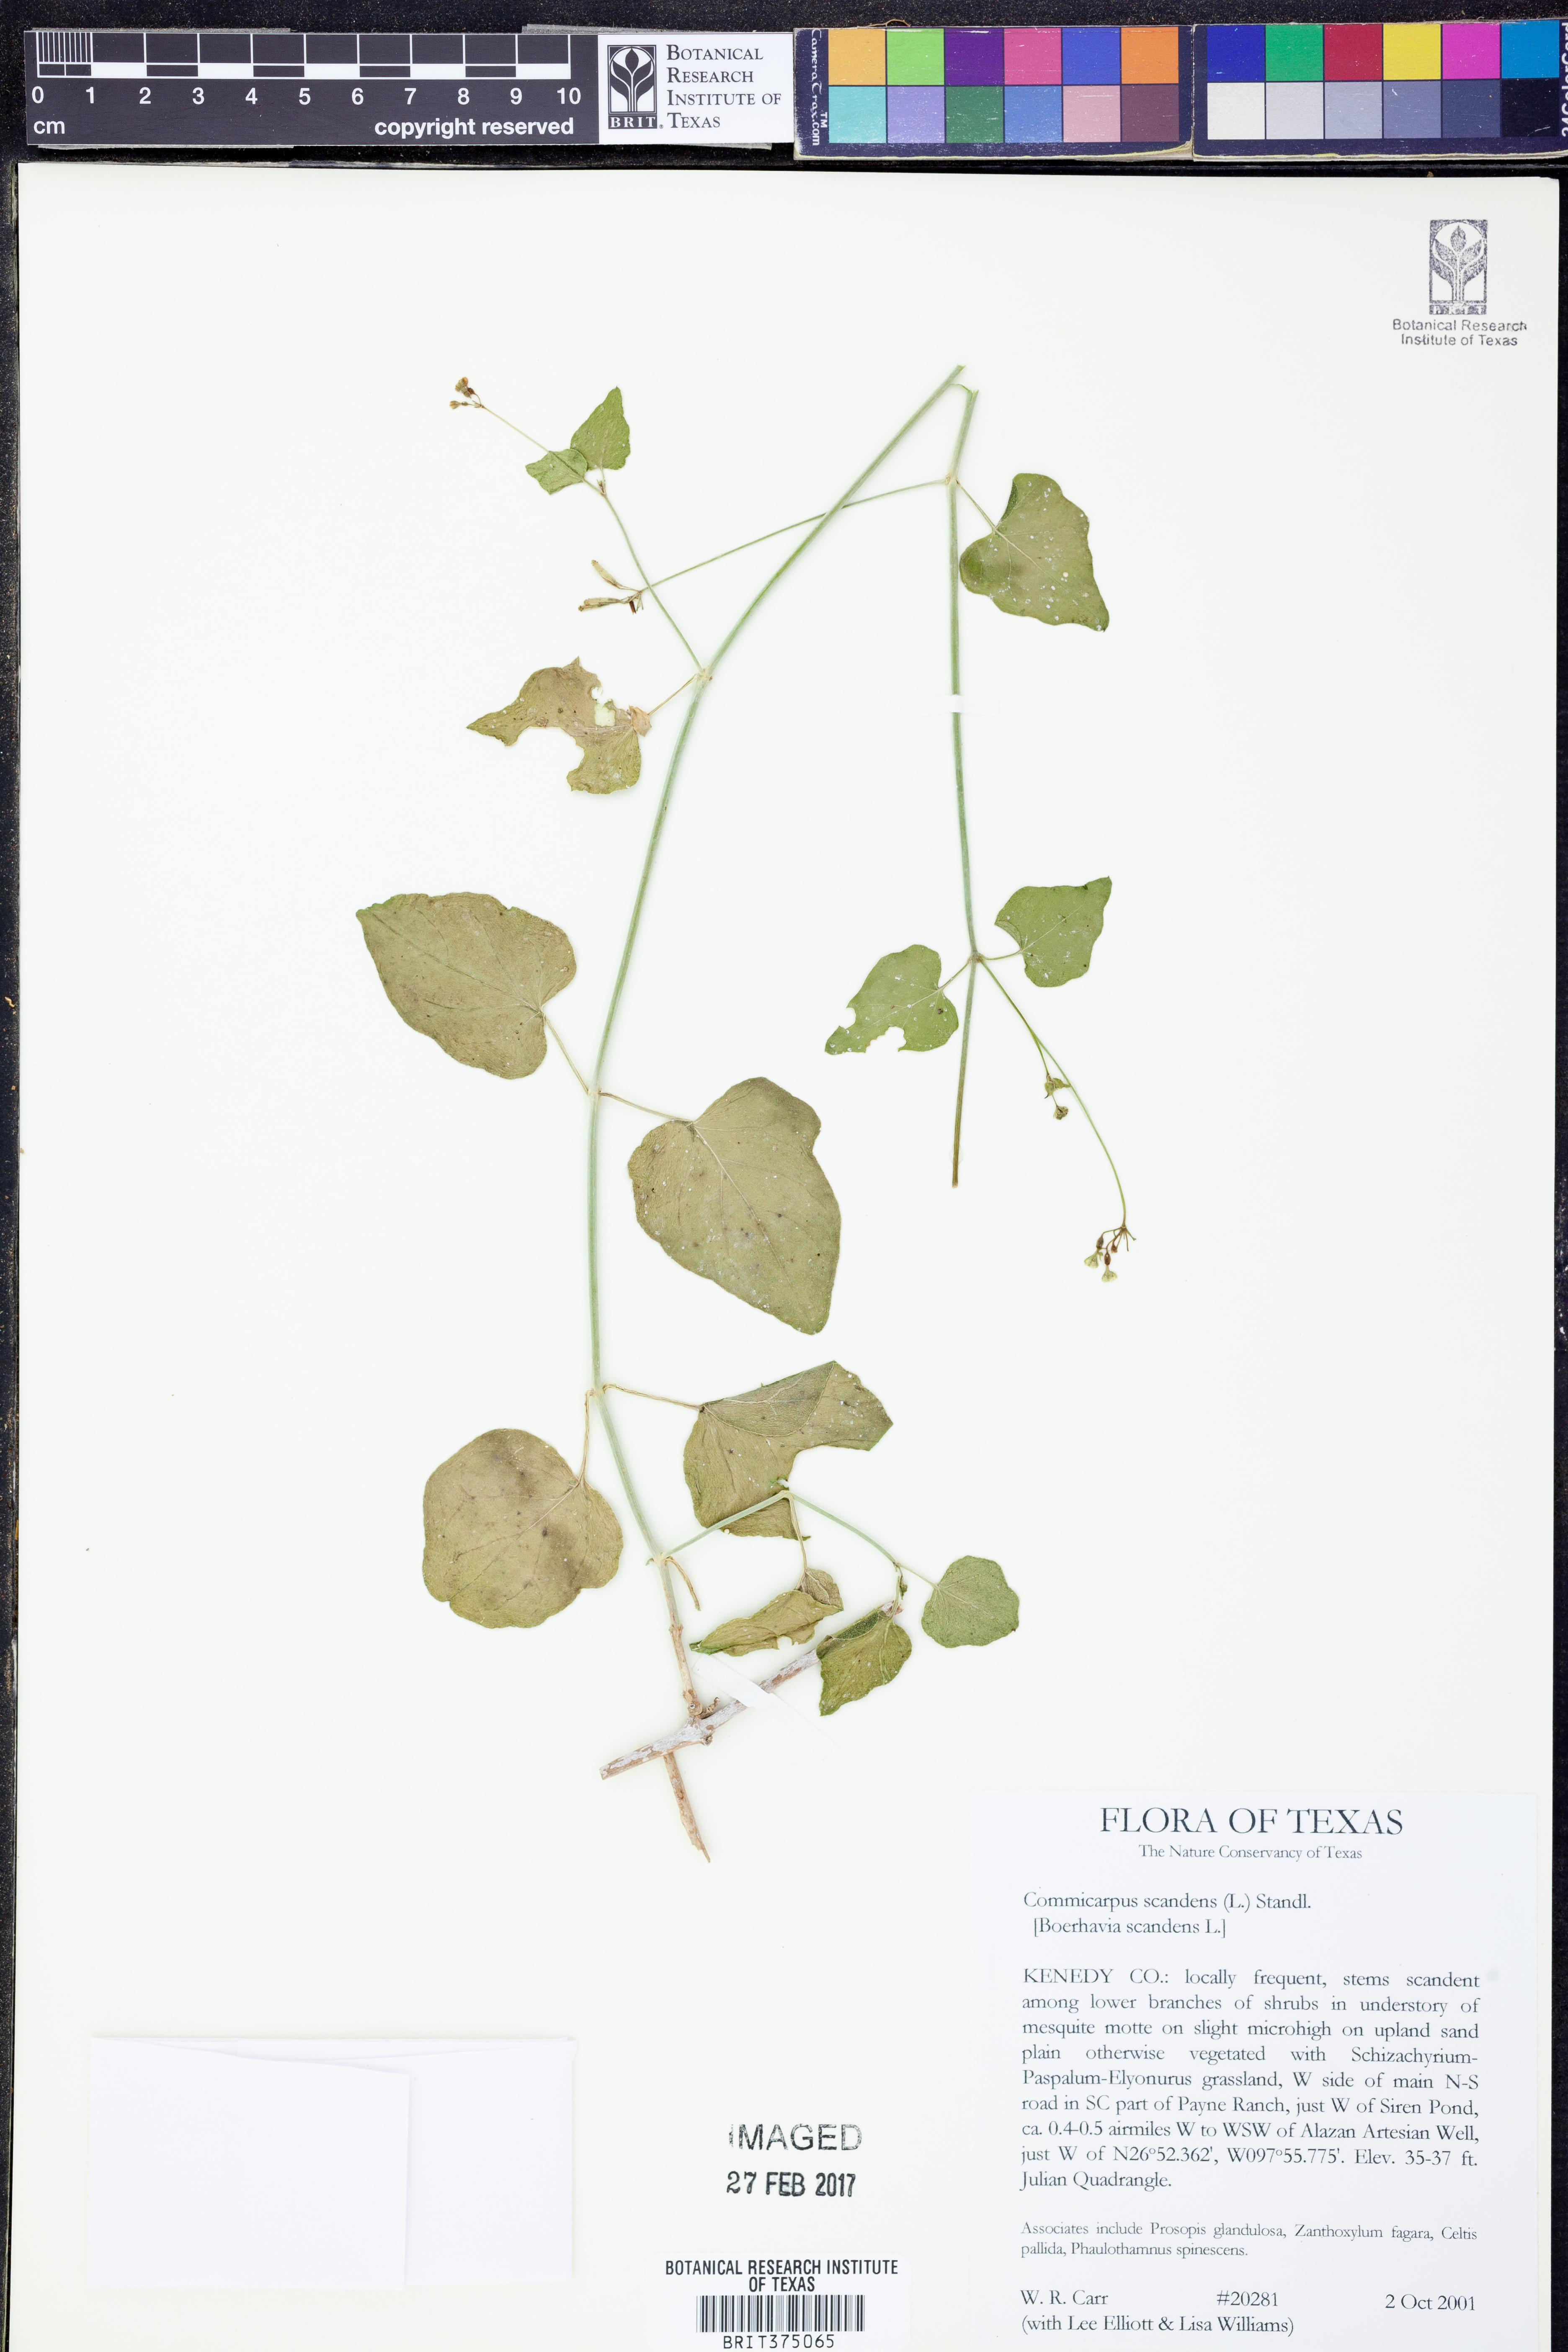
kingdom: Plantae
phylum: Tracheophyta
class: Magnoliopsida
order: Caryophyllales
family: Nyctaginaceae
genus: Commicarpus
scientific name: Commicarpus scandens
